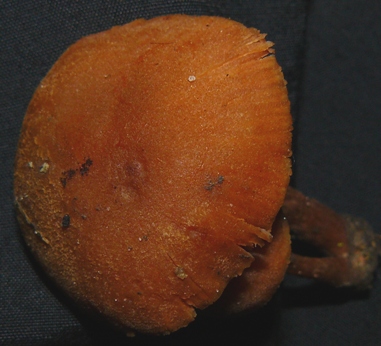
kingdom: Fungi
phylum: Basidiomycota
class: Agaricomycetes
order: Agaricales
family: Hydnangiaceae
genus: Laccaria
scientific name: Laccaria proxima
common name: stor ametysthat
